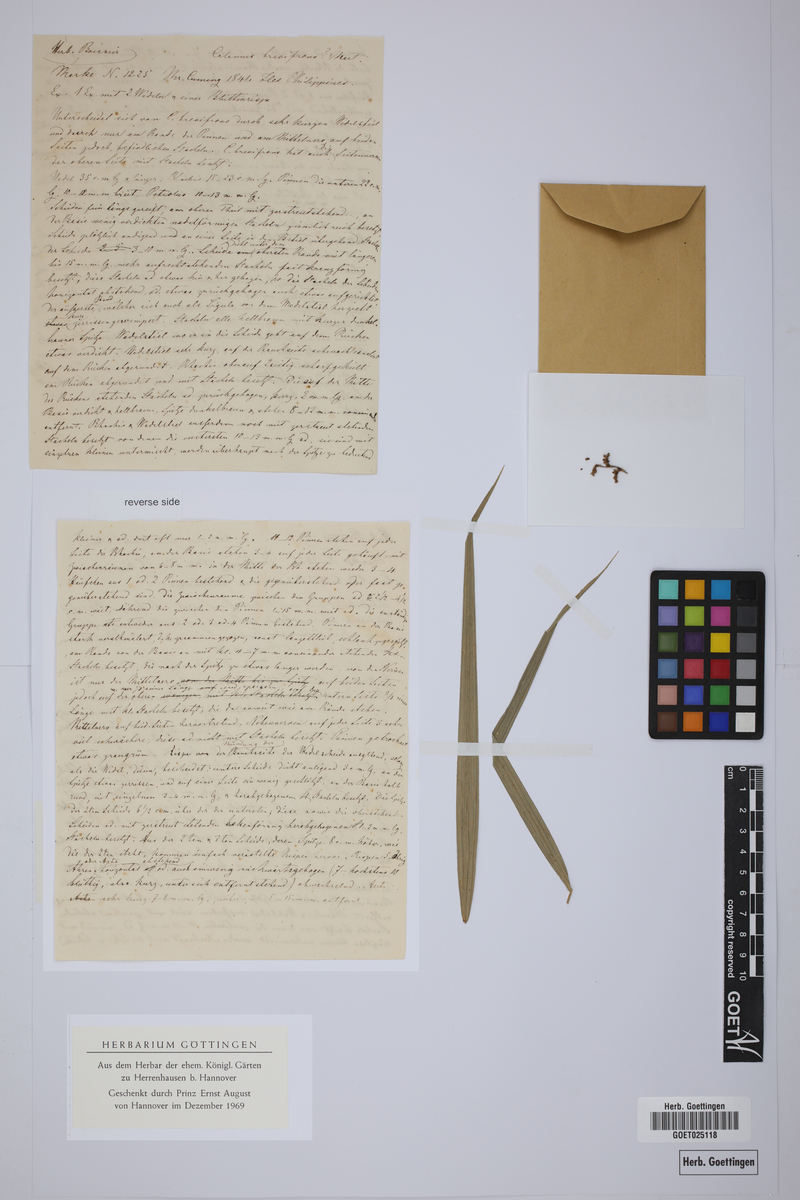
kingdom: Plantae
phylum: Tracheophyta
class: Liliopsida
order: Arecales
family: Arecaceae
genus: Calamus
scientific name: Calamus usitatus
